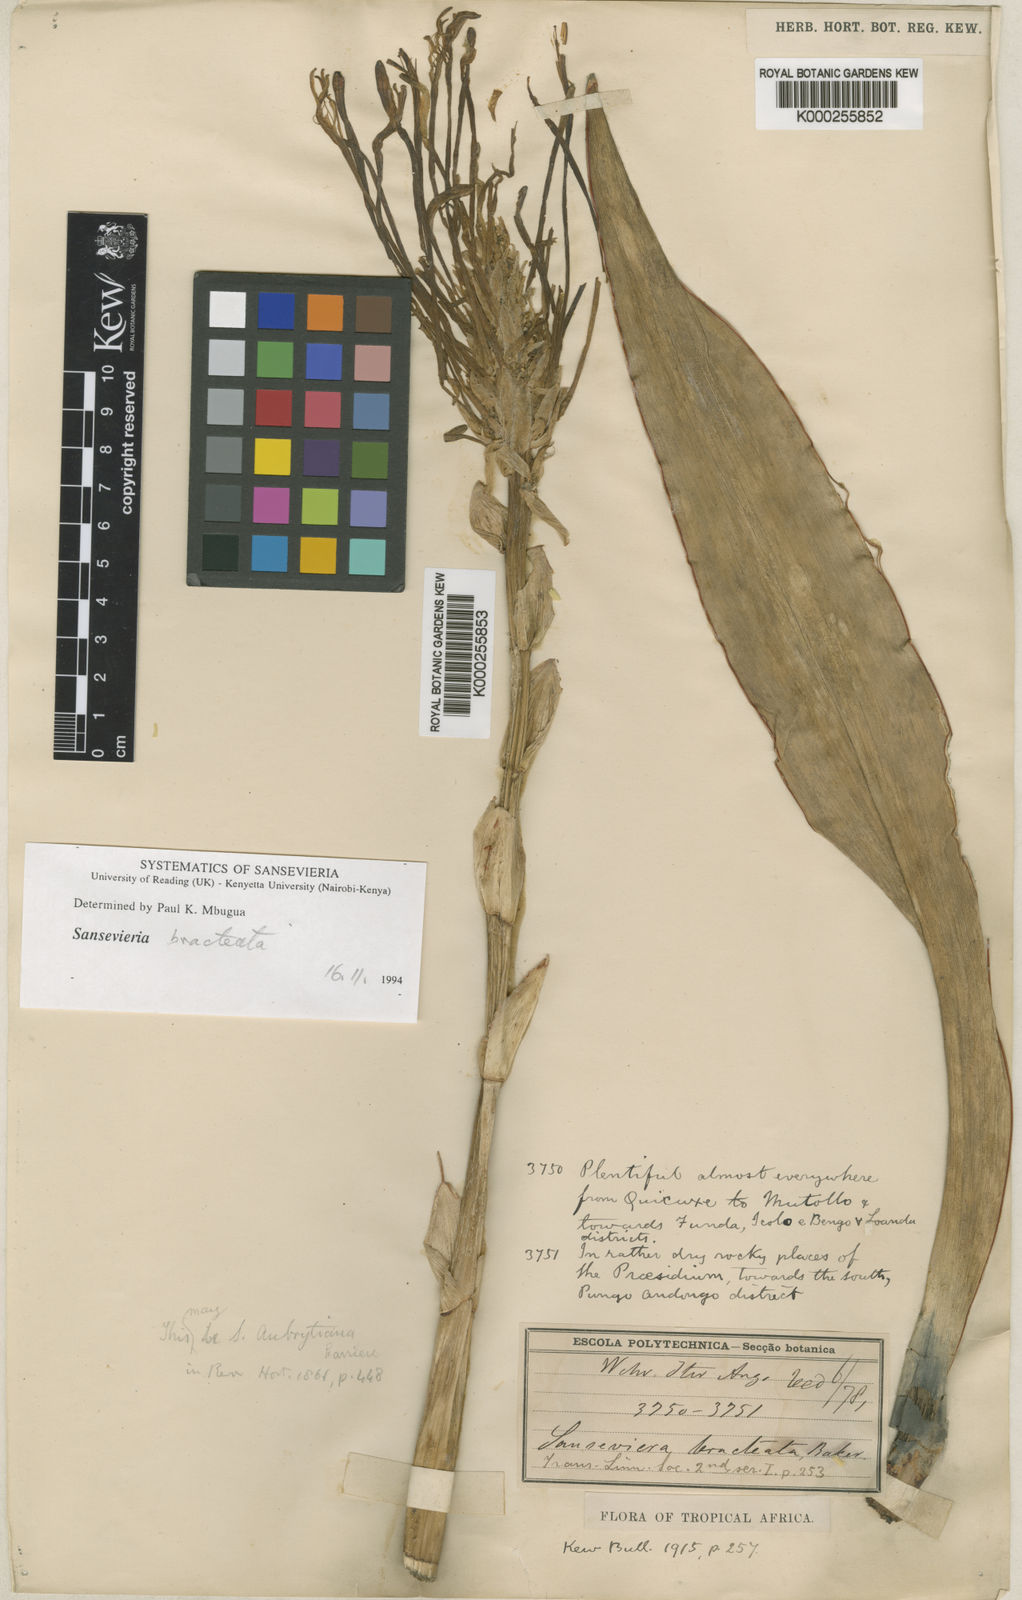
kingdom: Plantae
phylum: Tracheophyta
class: Liliopsida
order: Asparagales
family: Asparagaceae
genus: Dracaena
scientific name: Dracaena aubrytiana
